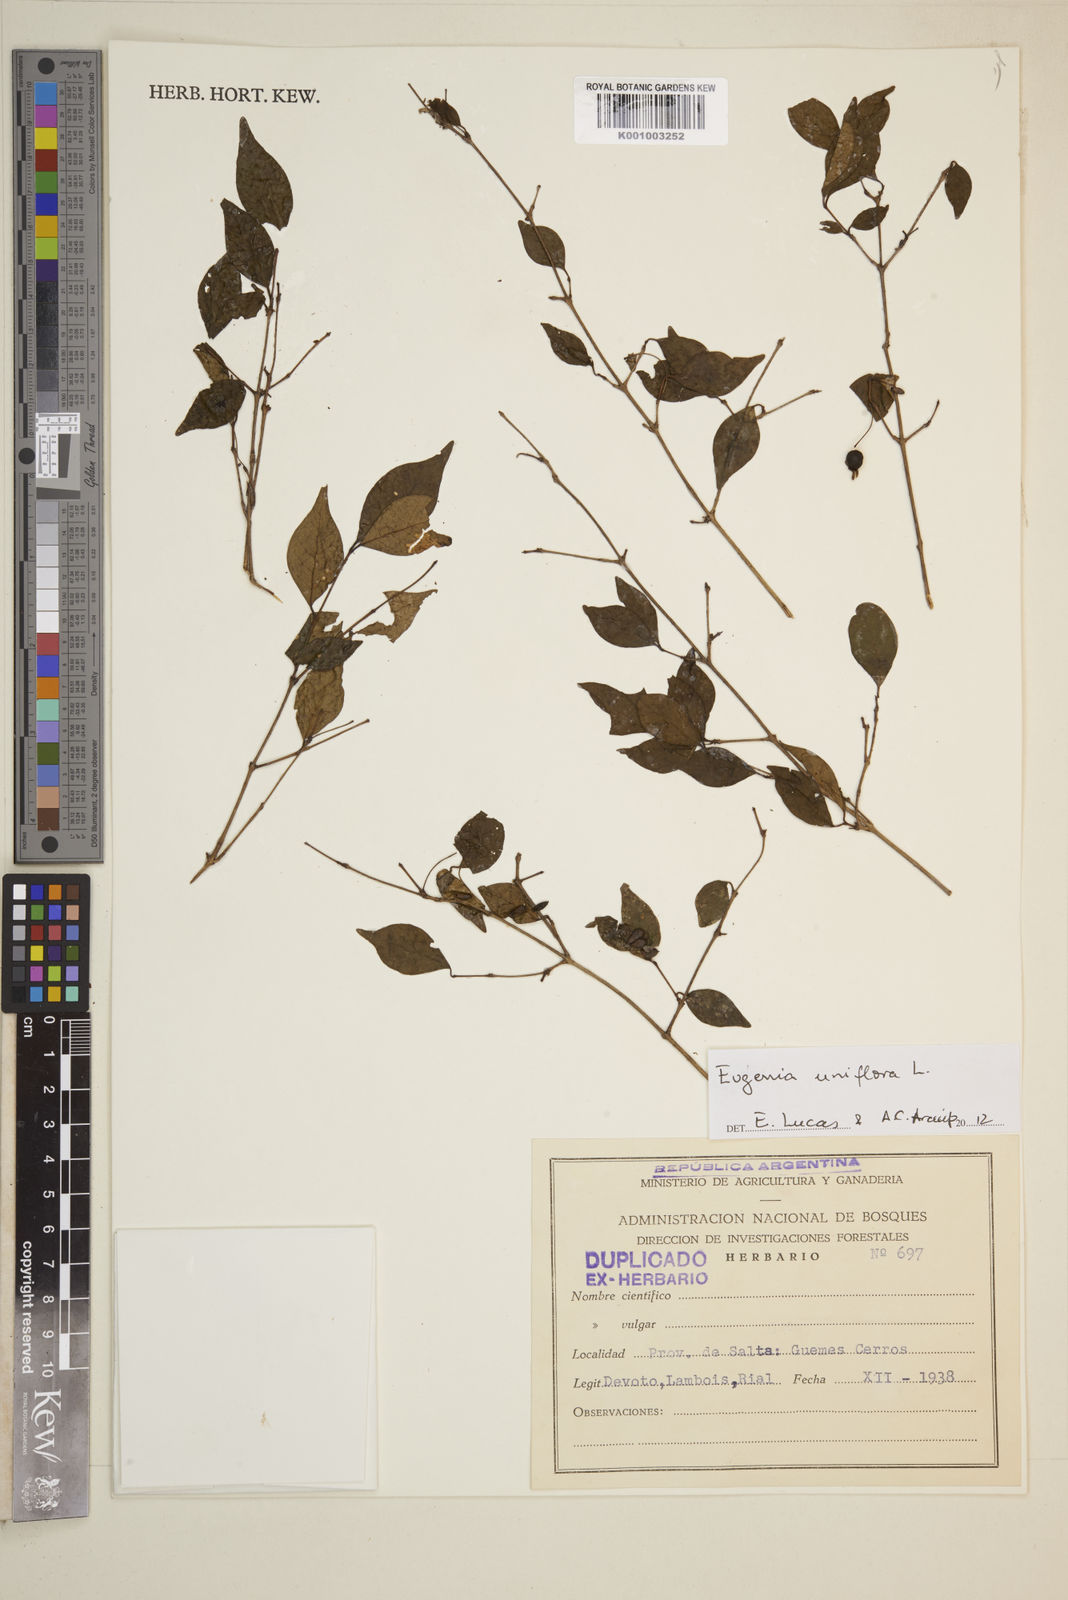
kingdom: Plantae
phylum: Tracheophyta
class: Magnoliopsida
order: Myrtales
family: Myrtaceae
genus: Eugenia
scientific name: Eugenia uniflora
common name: Surinam cherry
